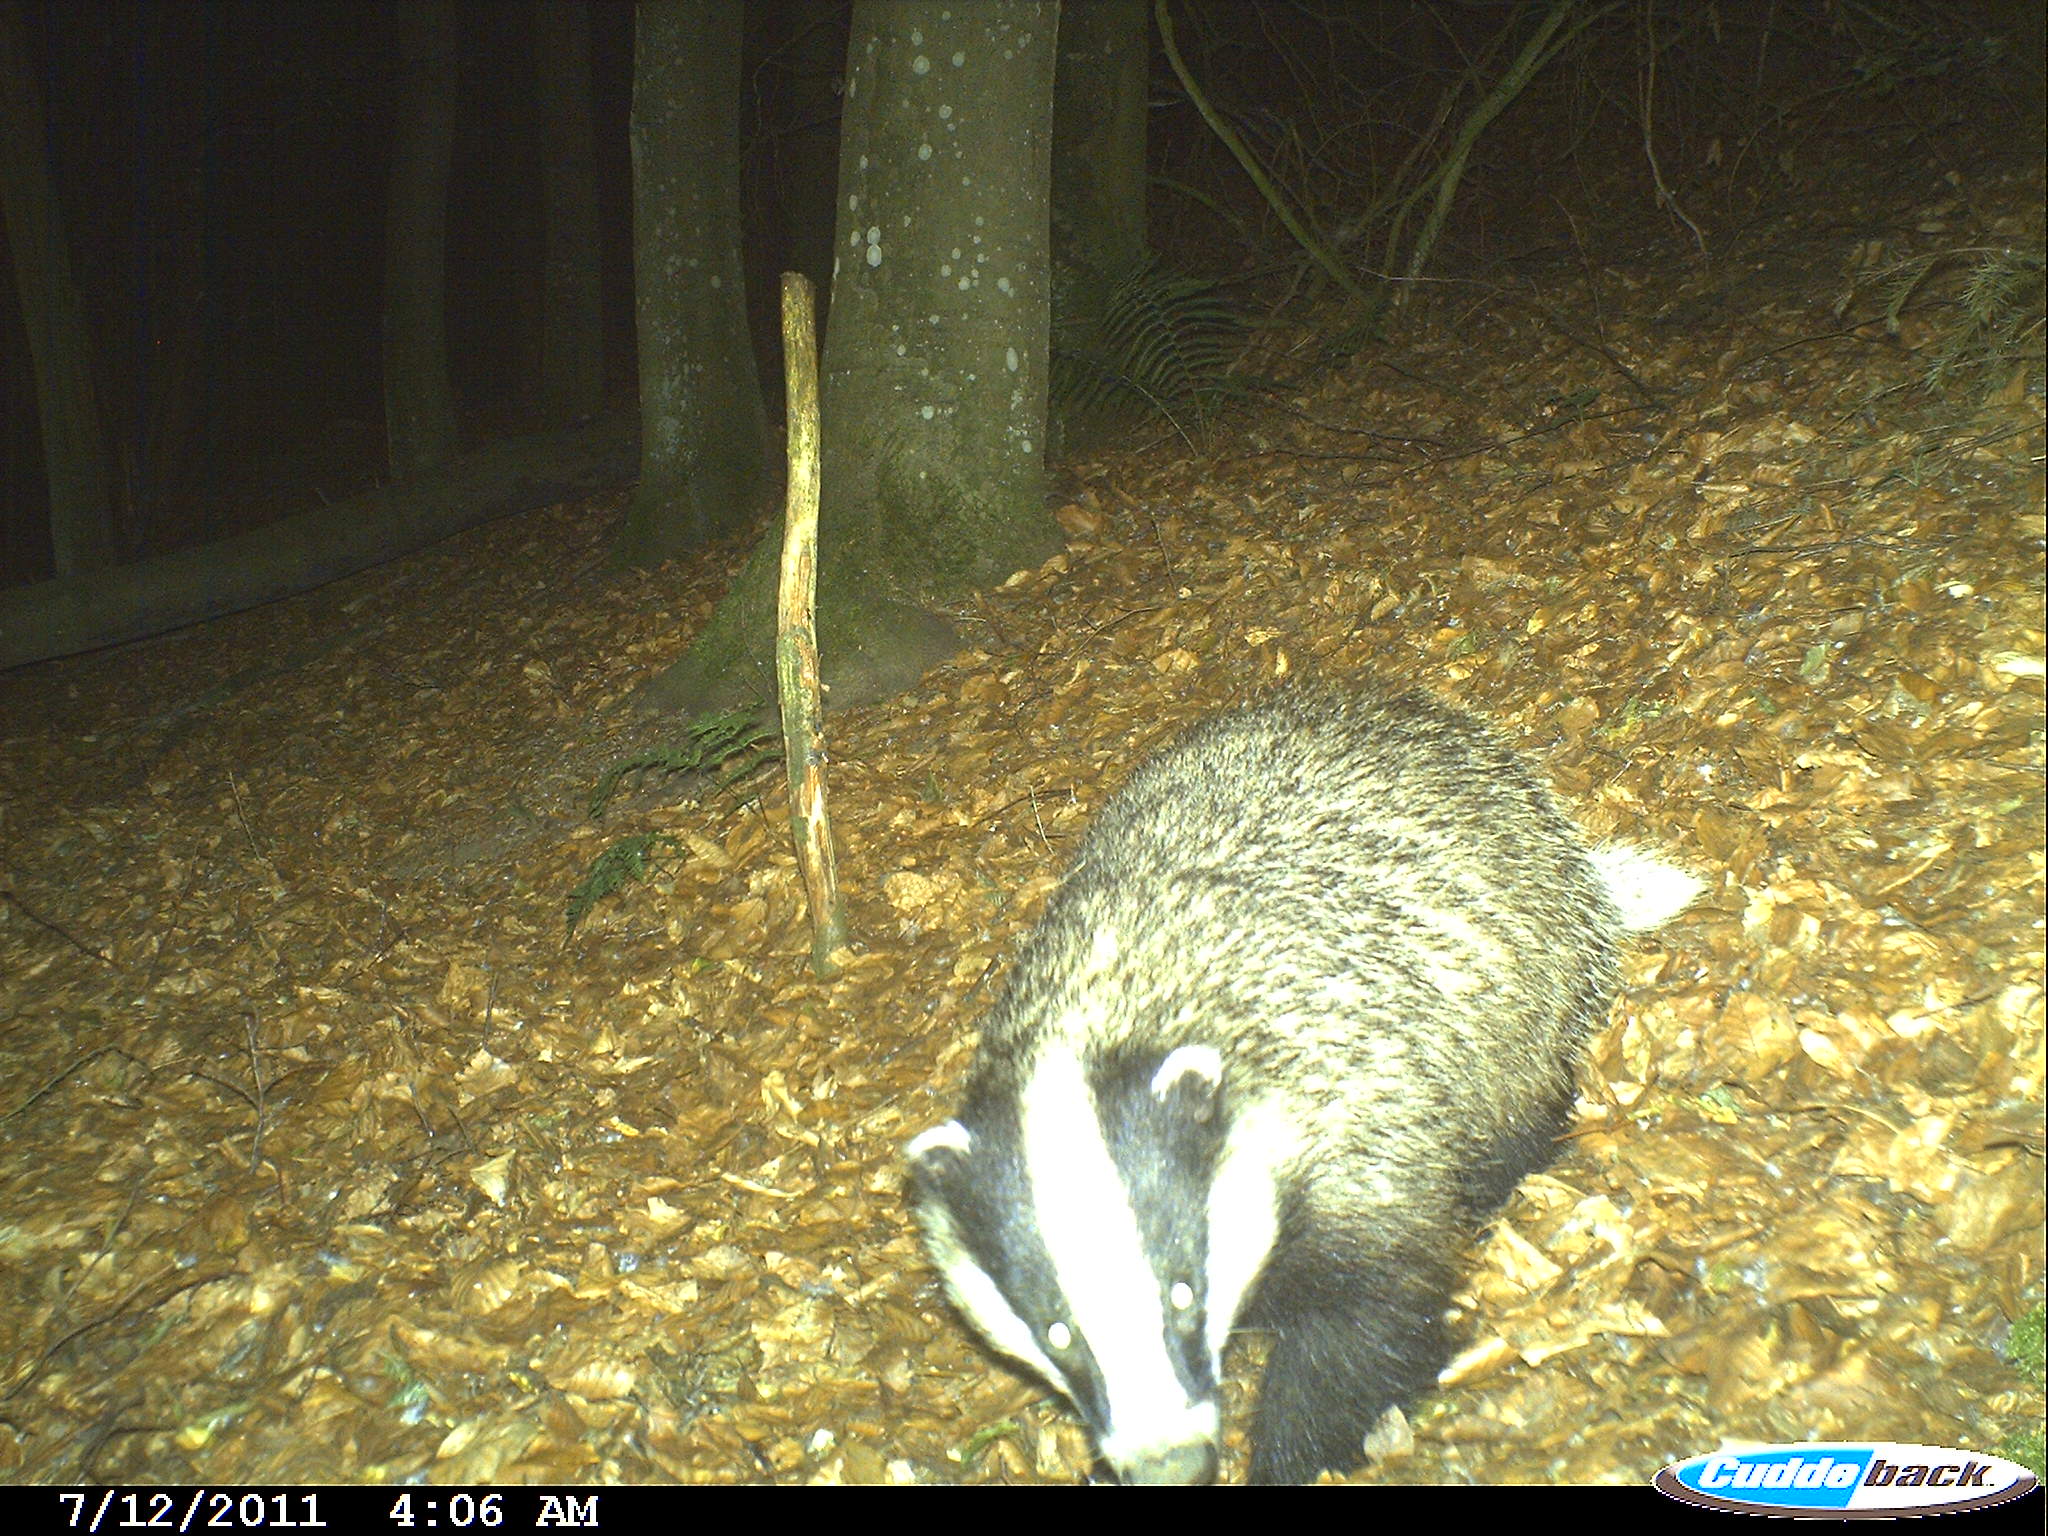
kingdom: Animalia
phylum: Chordata
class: Mammalia
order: Carnivora
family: Mustelidae
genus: Meles
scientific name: Meles meles
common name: Eurasian badger
